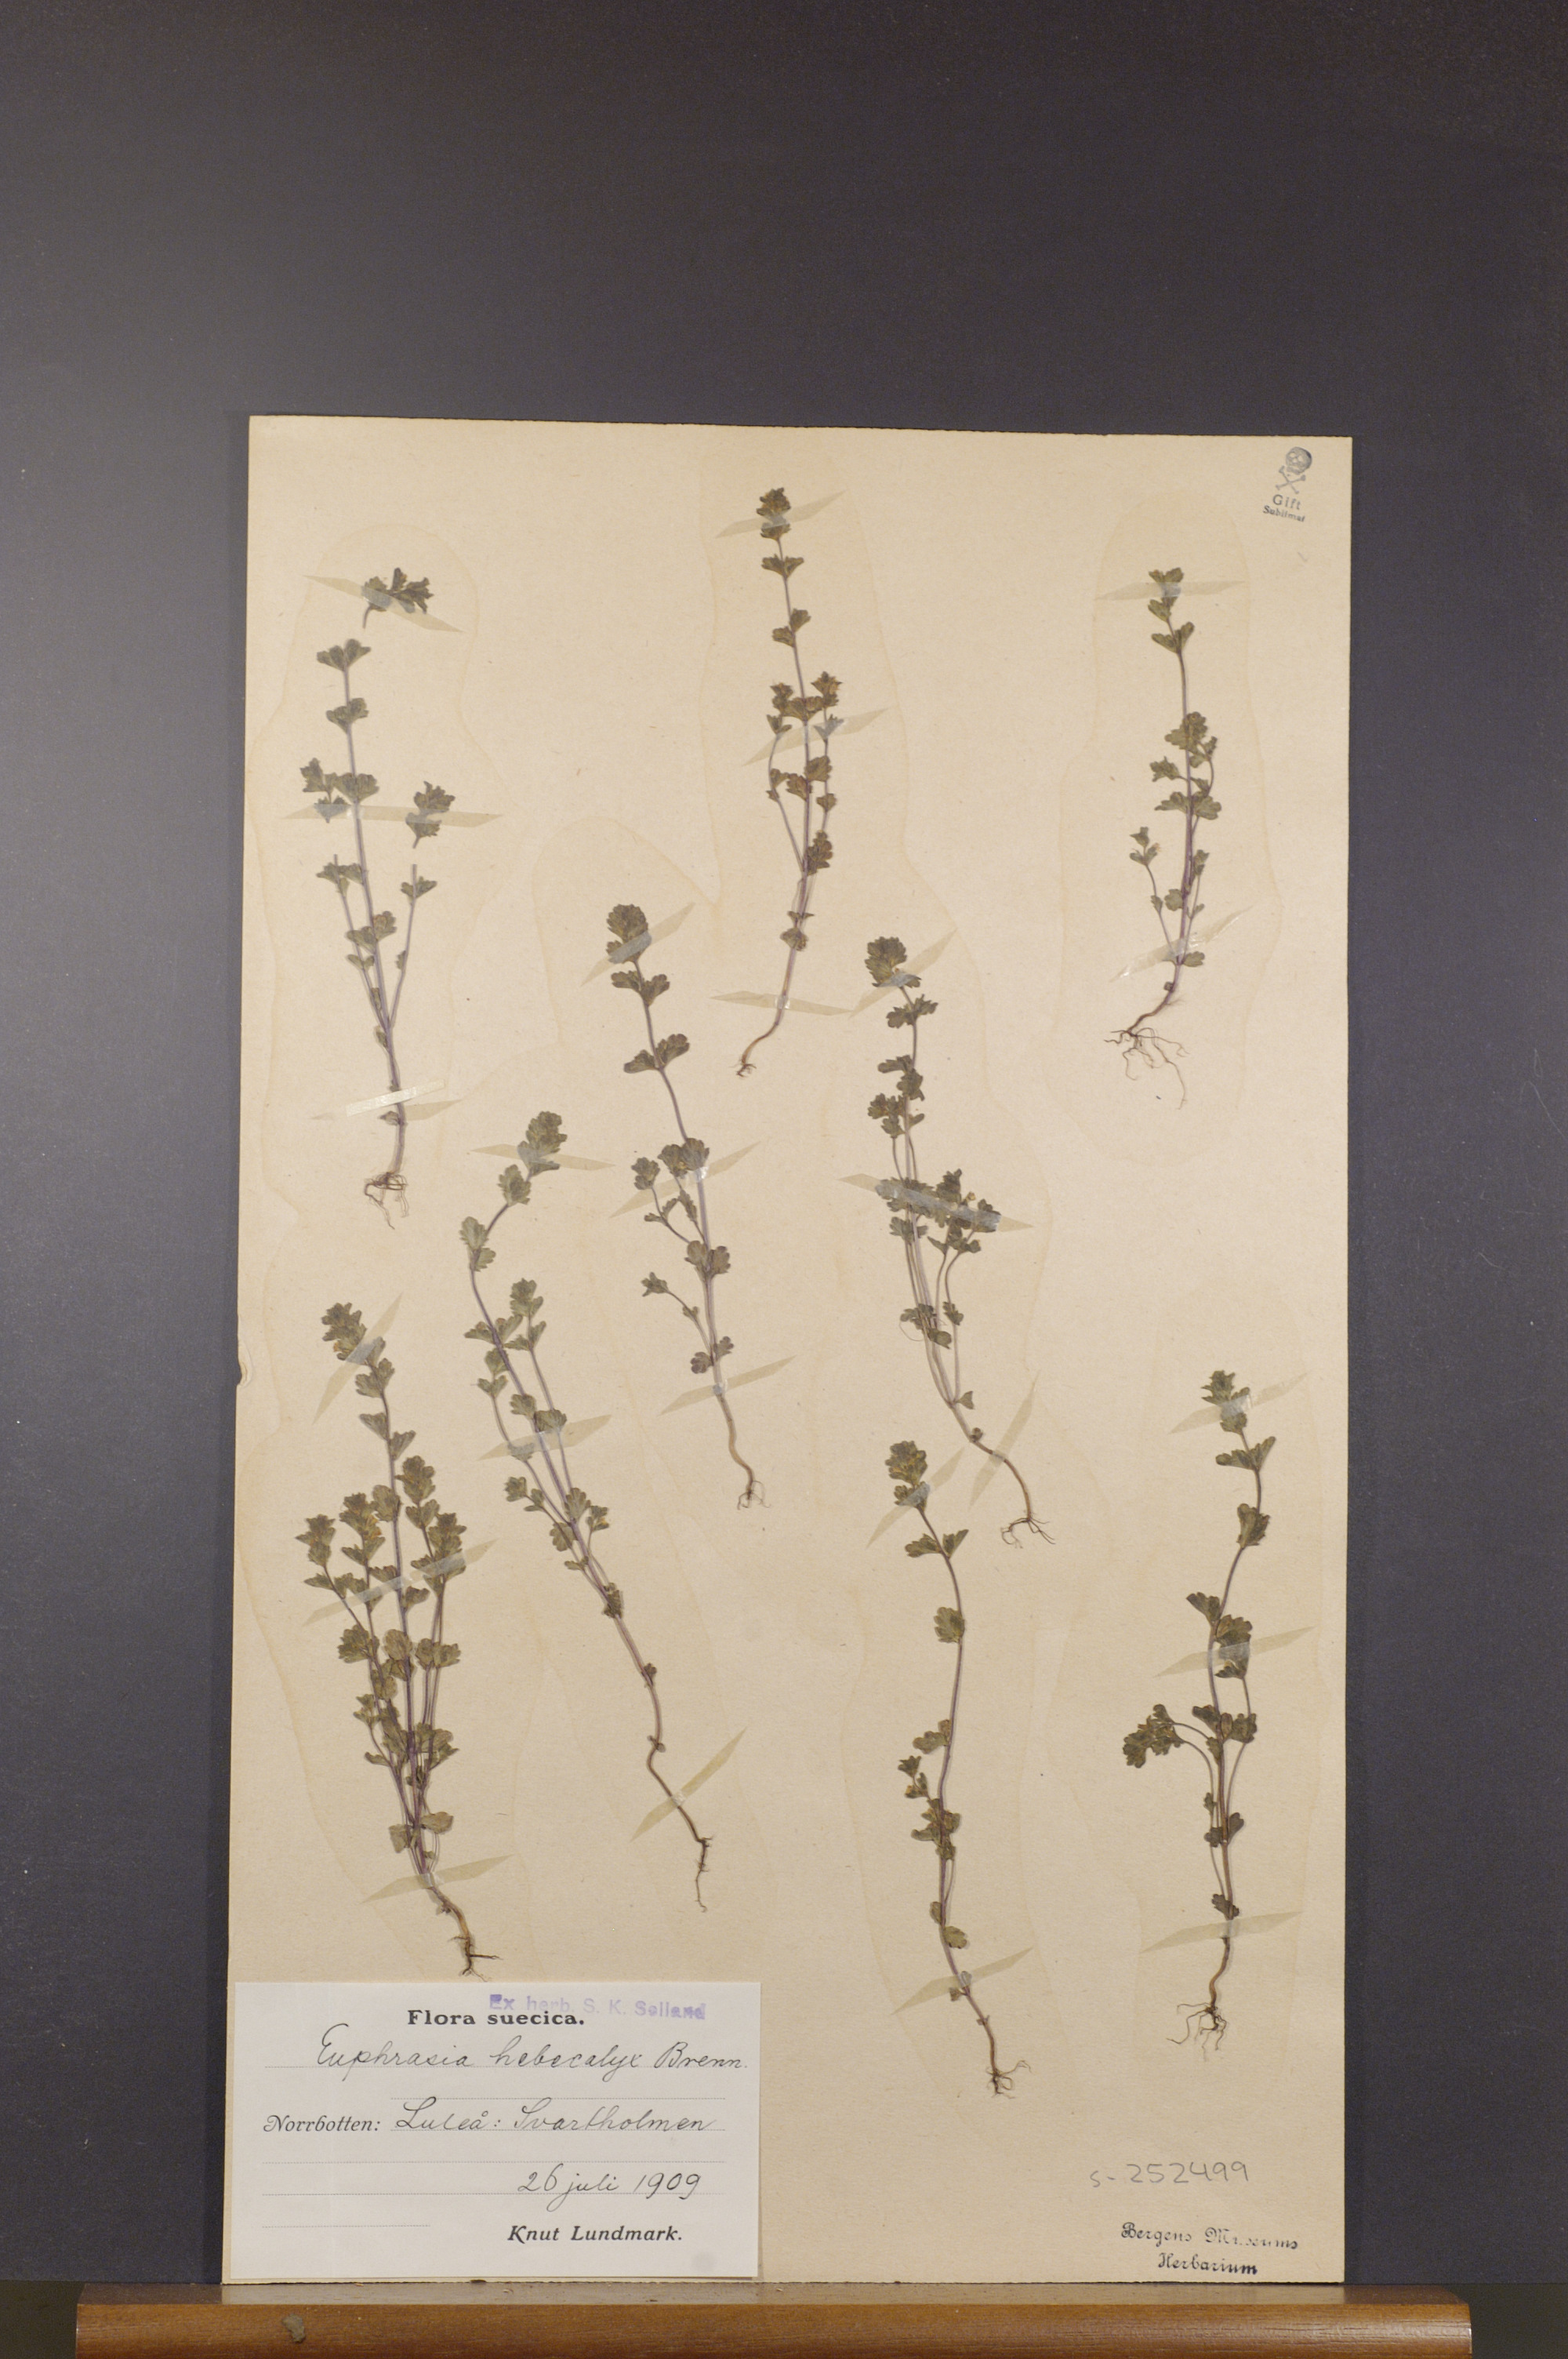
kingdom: Plantae
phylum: Tracheophyta
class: Magnoliopsida
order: Lamiales
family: Orobanchaceae
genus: Euphrasia
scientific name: Euphrasia bottnica
